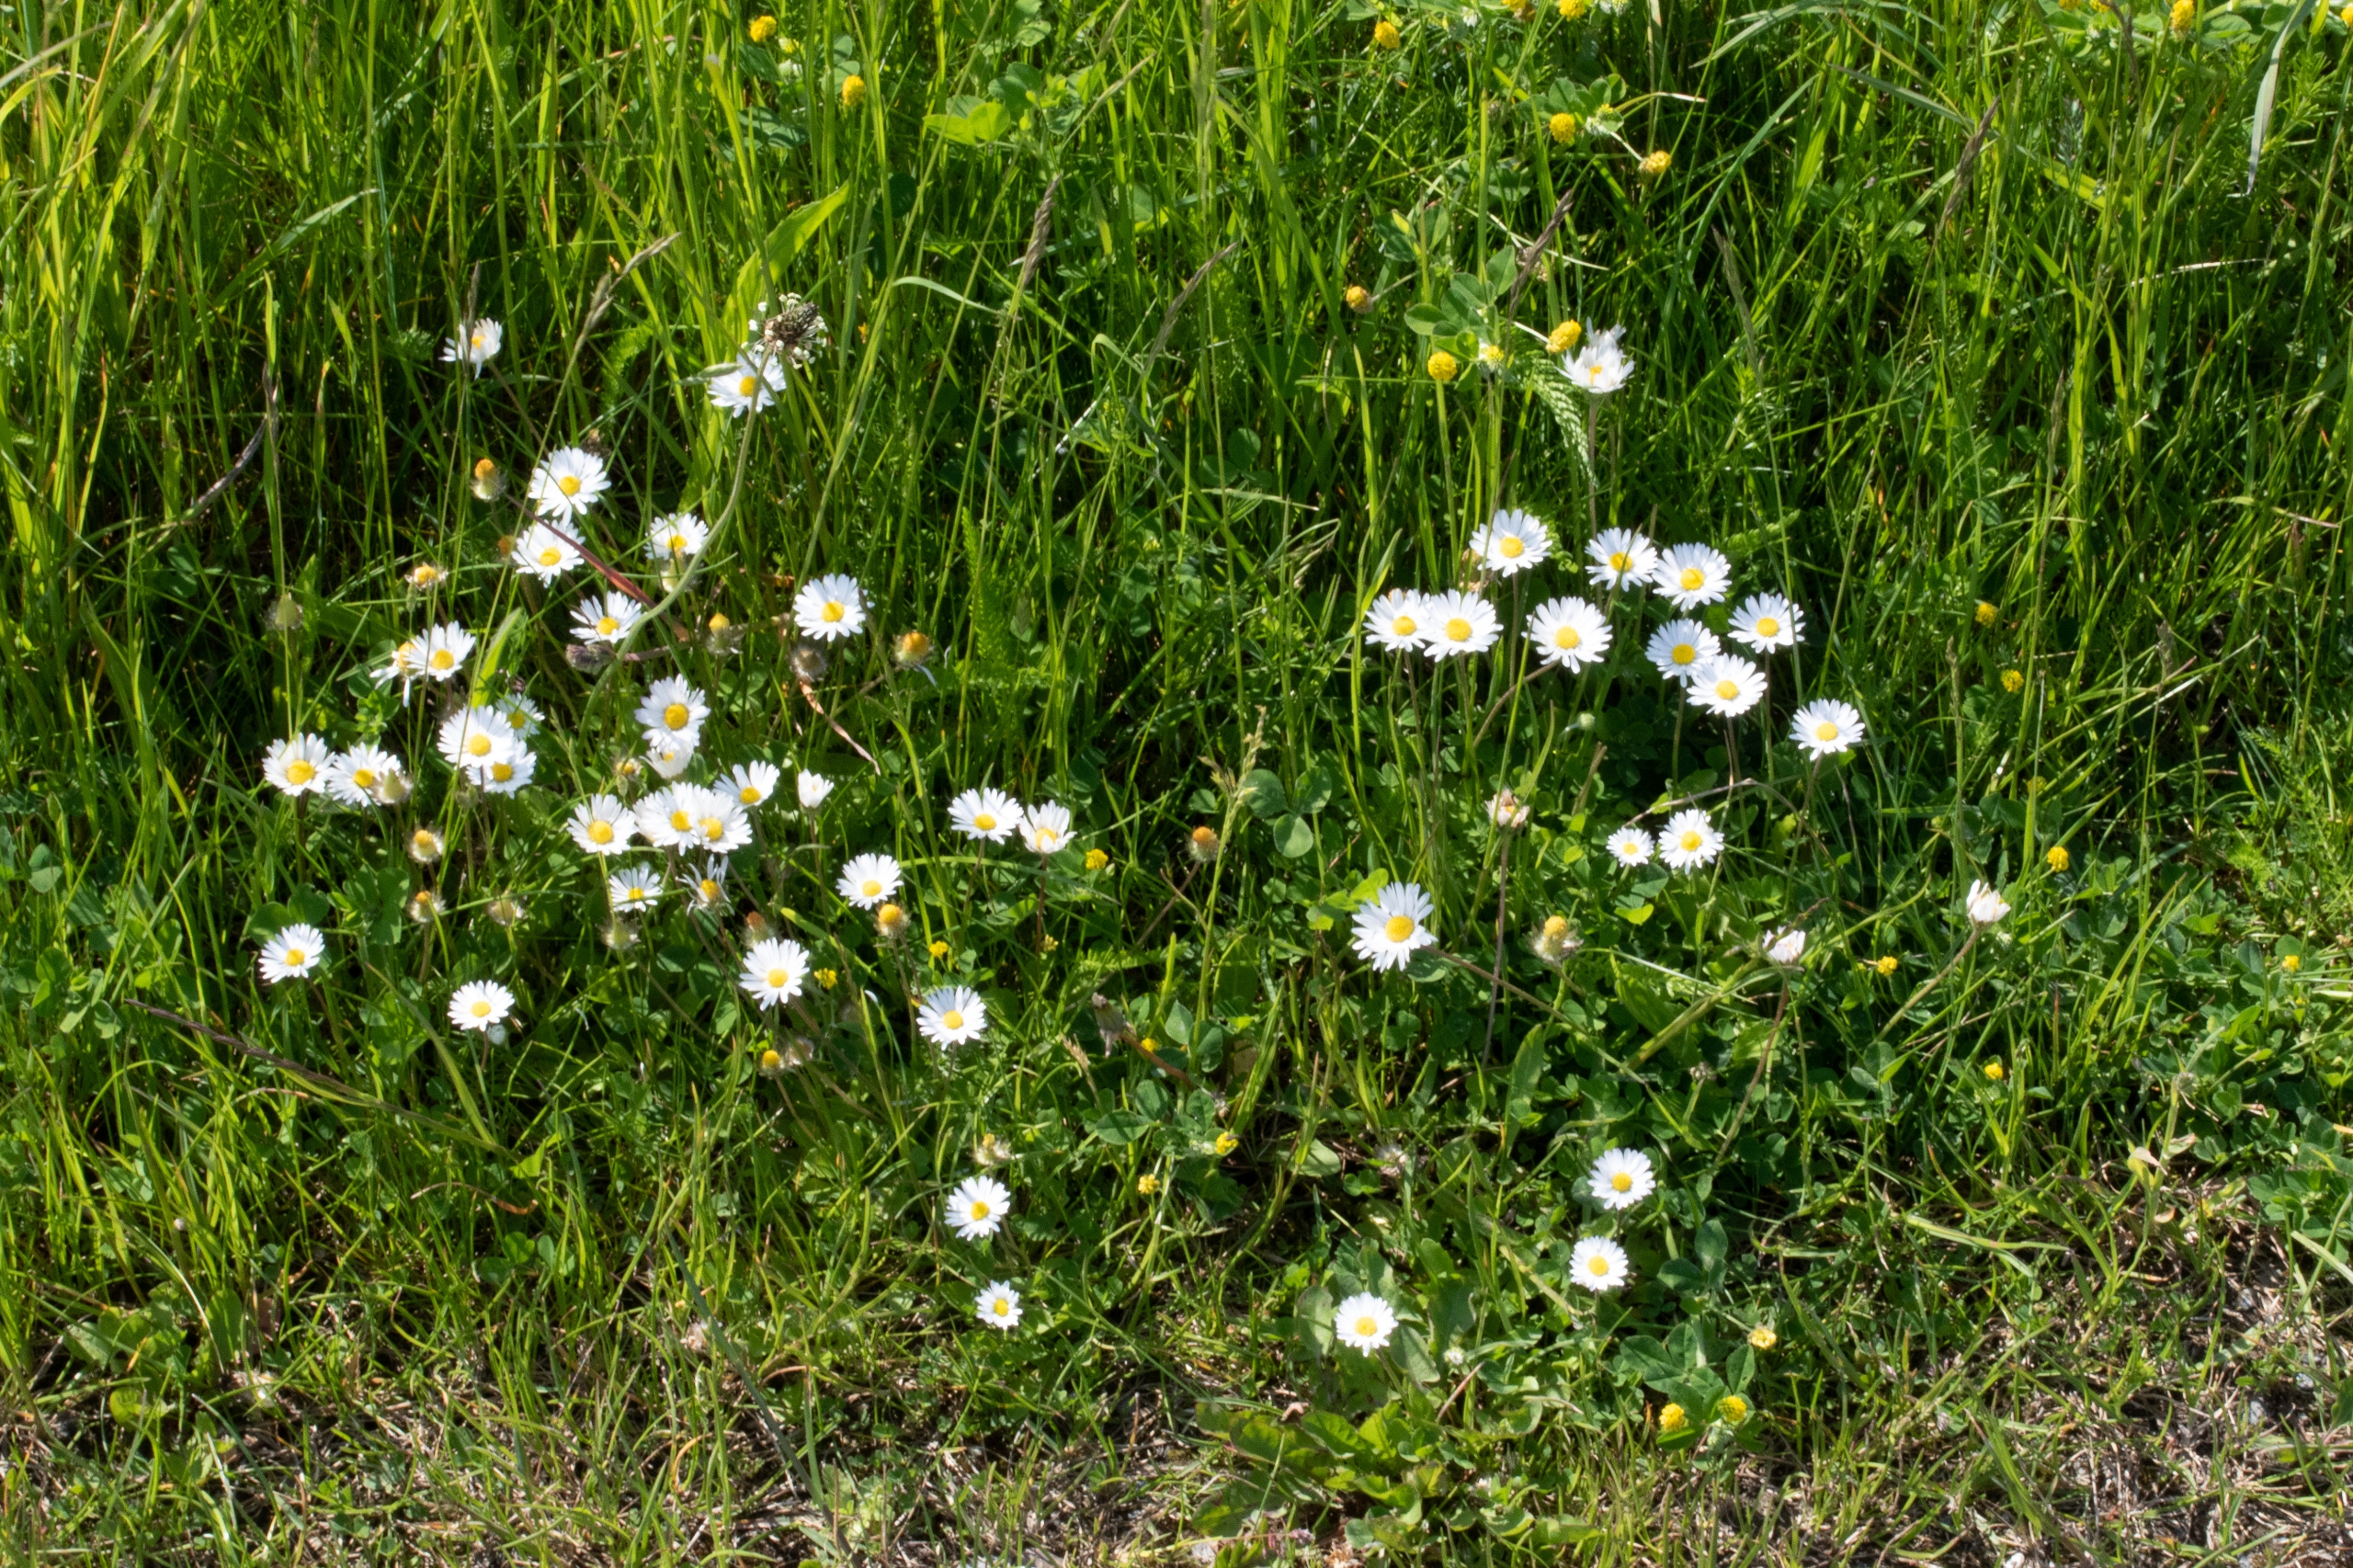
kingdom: Plantae
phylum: Tracheophyta
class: Magnoliopsida
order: Asterales
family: Asteraceae
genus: Bellis
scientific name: Bellis perennis
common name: Tusindfryd
